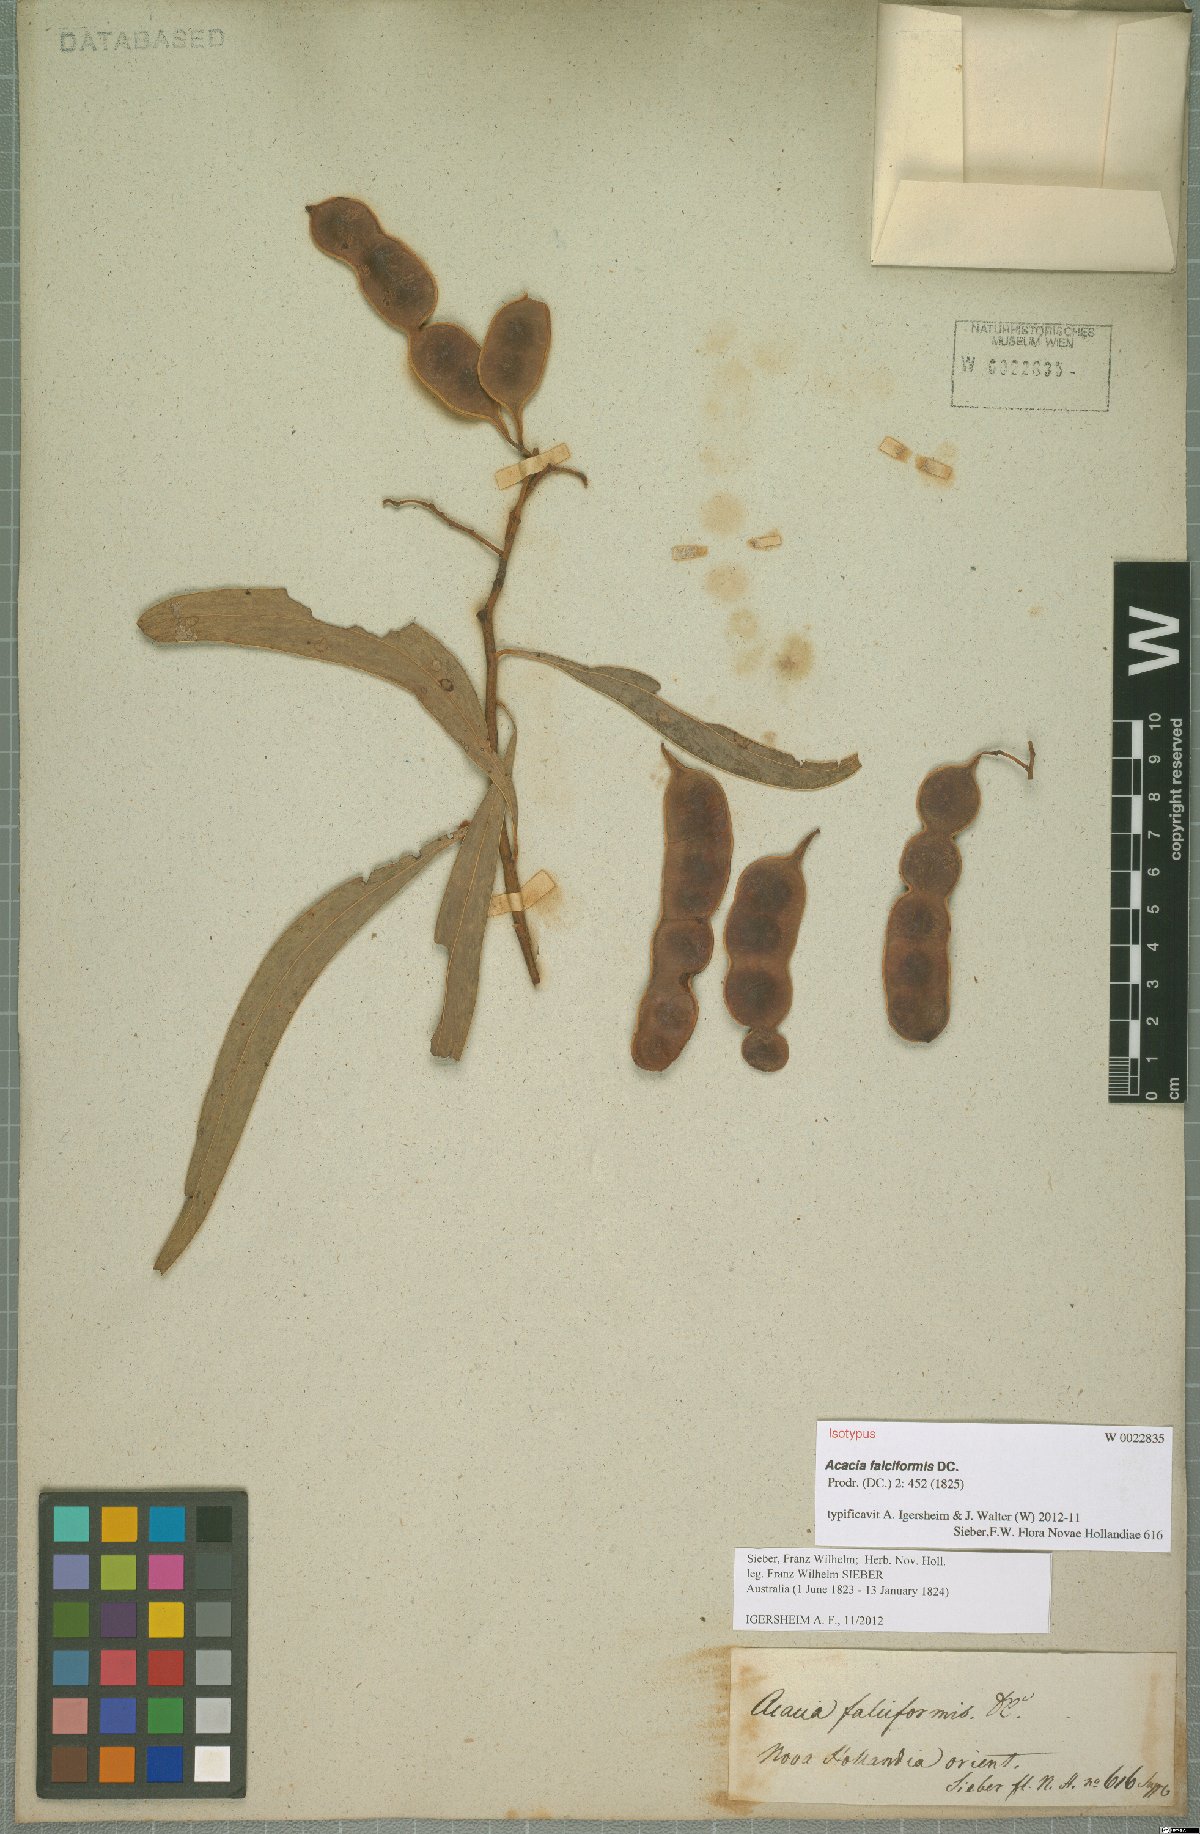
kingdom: Plantae
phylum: Tracheophyta
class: Magnoliopsida
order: Fabales
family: Fabaceae
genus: Acacia
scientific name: Acacia falciformis
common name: Tanning wattle
